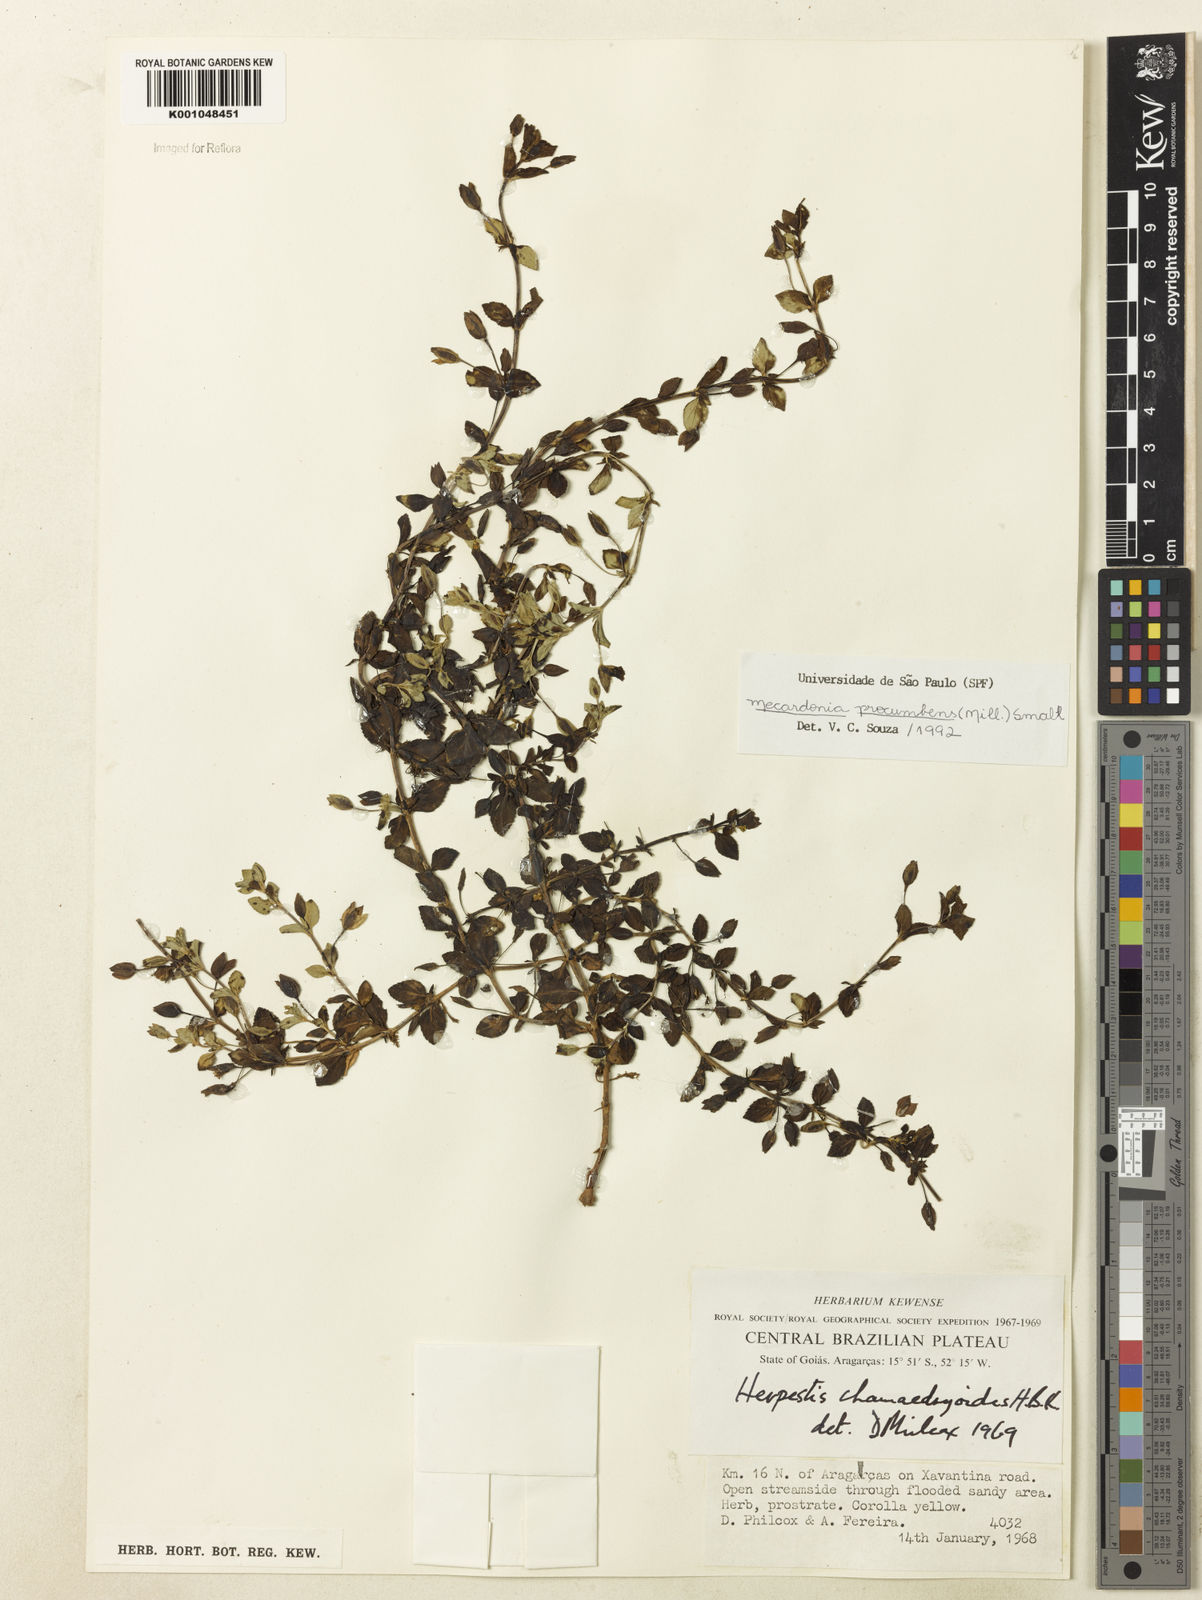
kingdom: Plantae
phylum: Tracheophyta
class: Magnoliopsida
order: Lamiales
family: Plantaginaceae
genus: Mecardonia
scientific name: Mecardonia procumbens
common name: Baby jump-up
